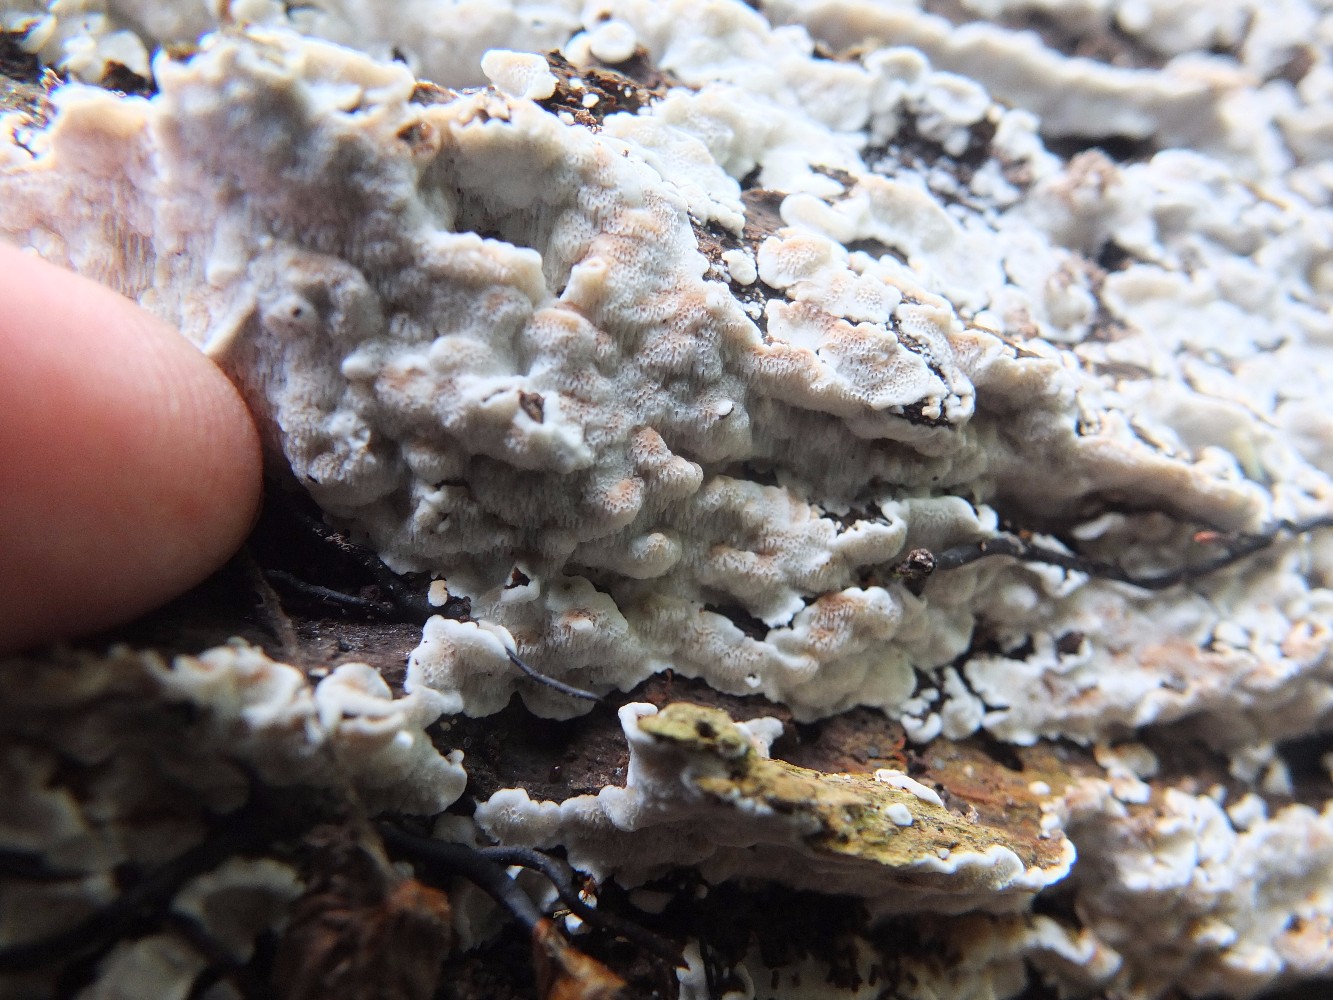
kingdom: Fungi
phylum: Basidiomycota
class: Agaricomycetes
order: Polyporales
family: Meripilaceae
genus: Rigidoporus
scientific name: Rigidoporus sanguinolentus
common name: blod-skorpeporesvamp
